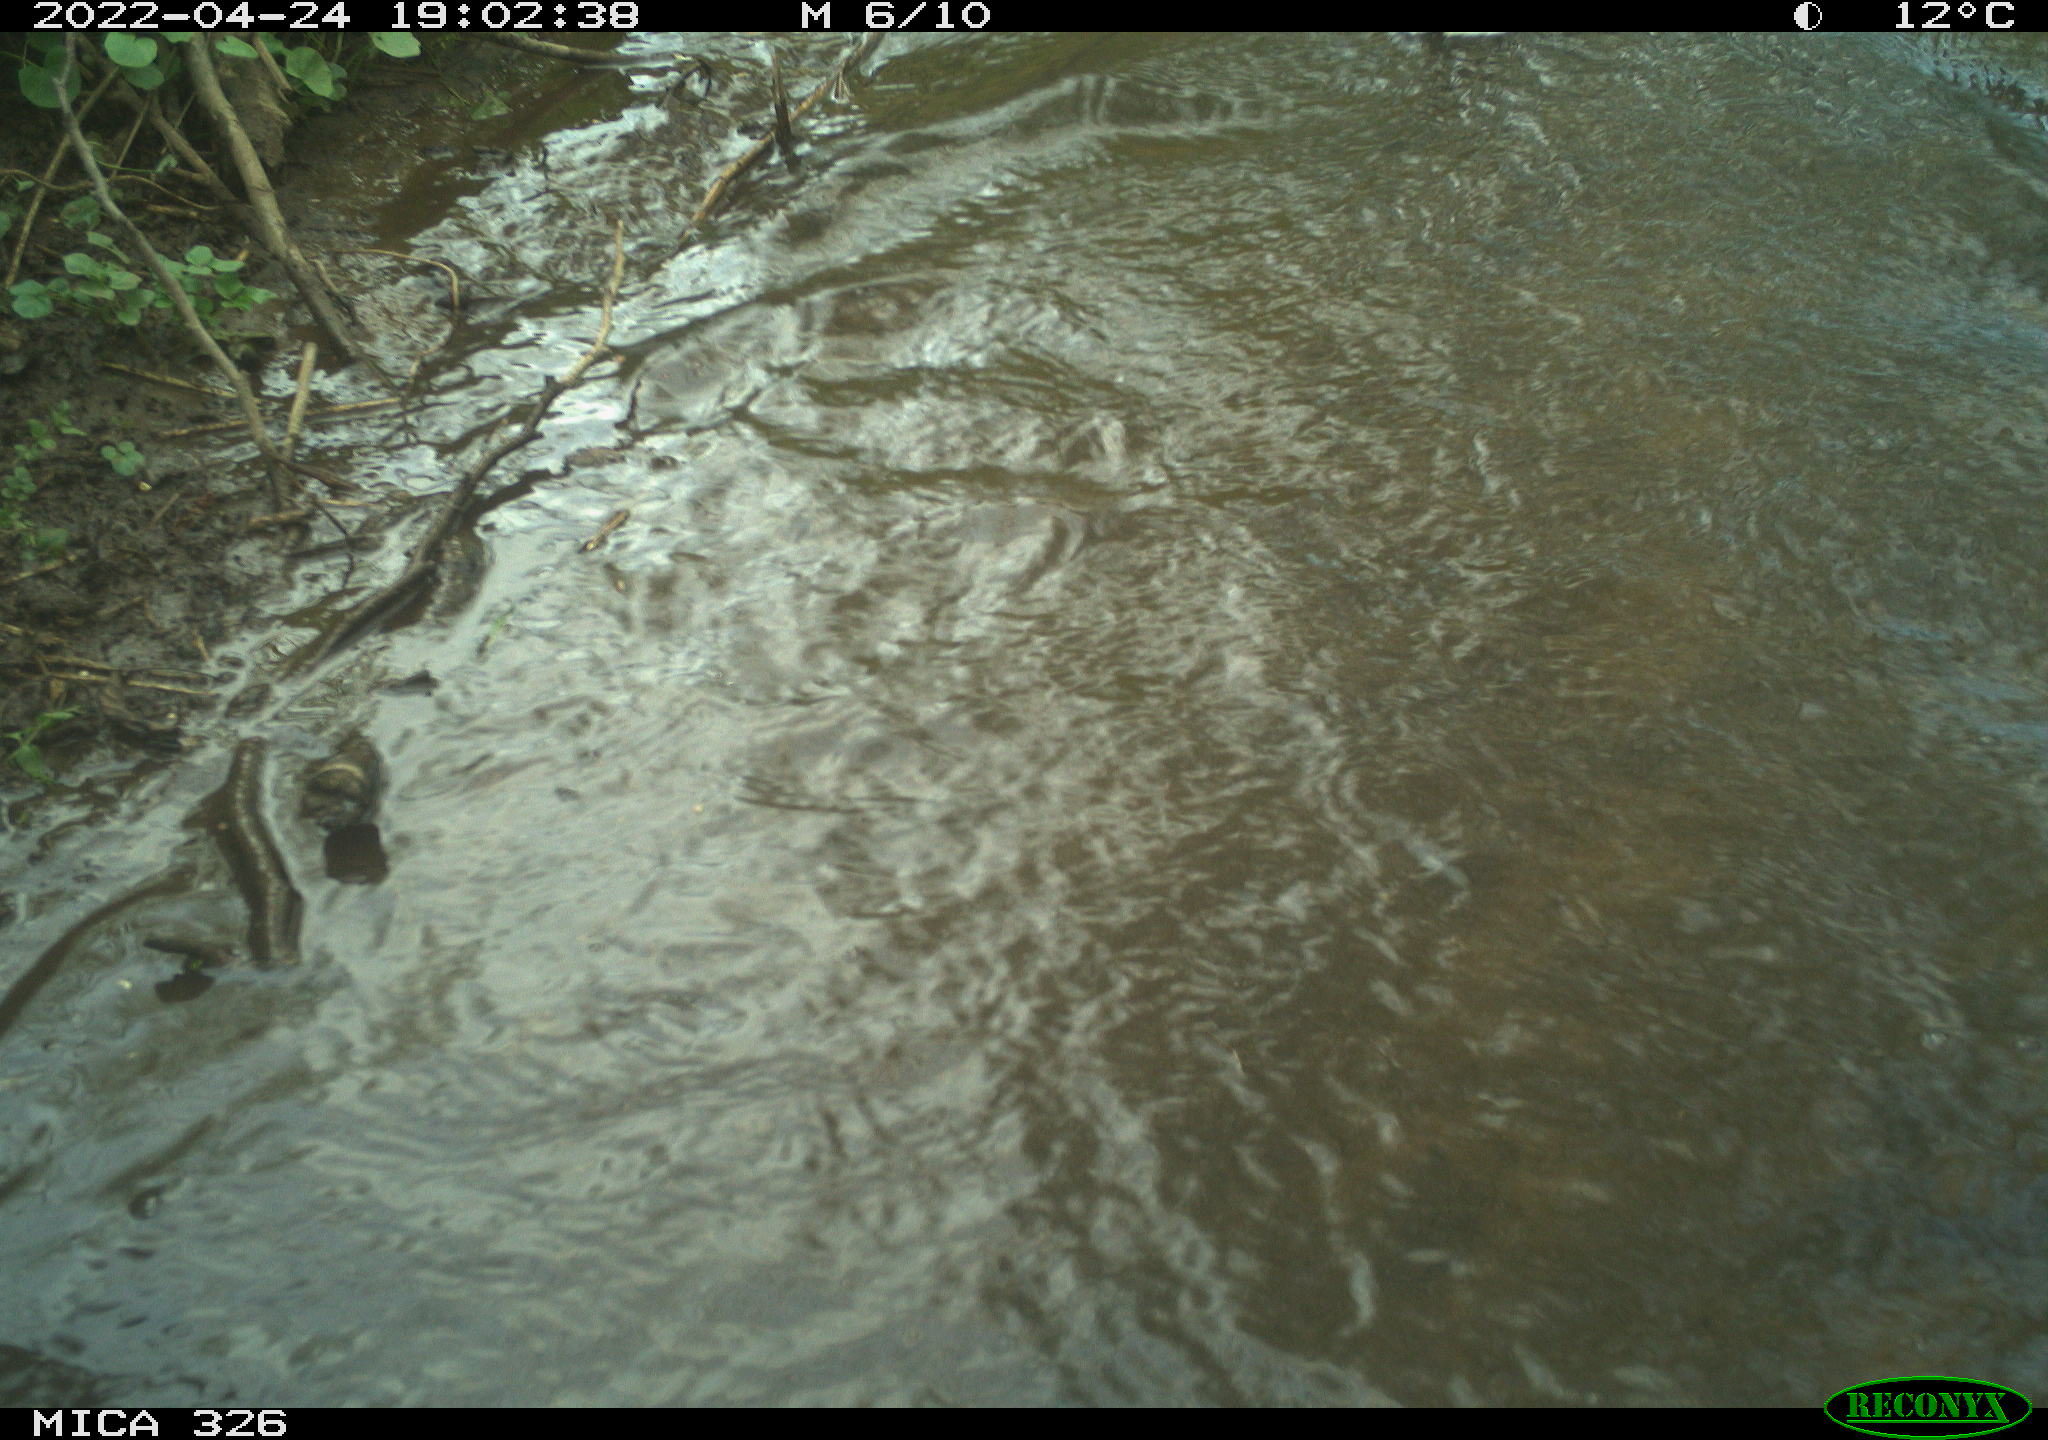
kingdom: Animalia
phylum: Chordata
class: Aves
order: Anseriformes
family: Anatidae
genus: Anas
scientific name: Anas platyrhynchos
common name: Mallard
